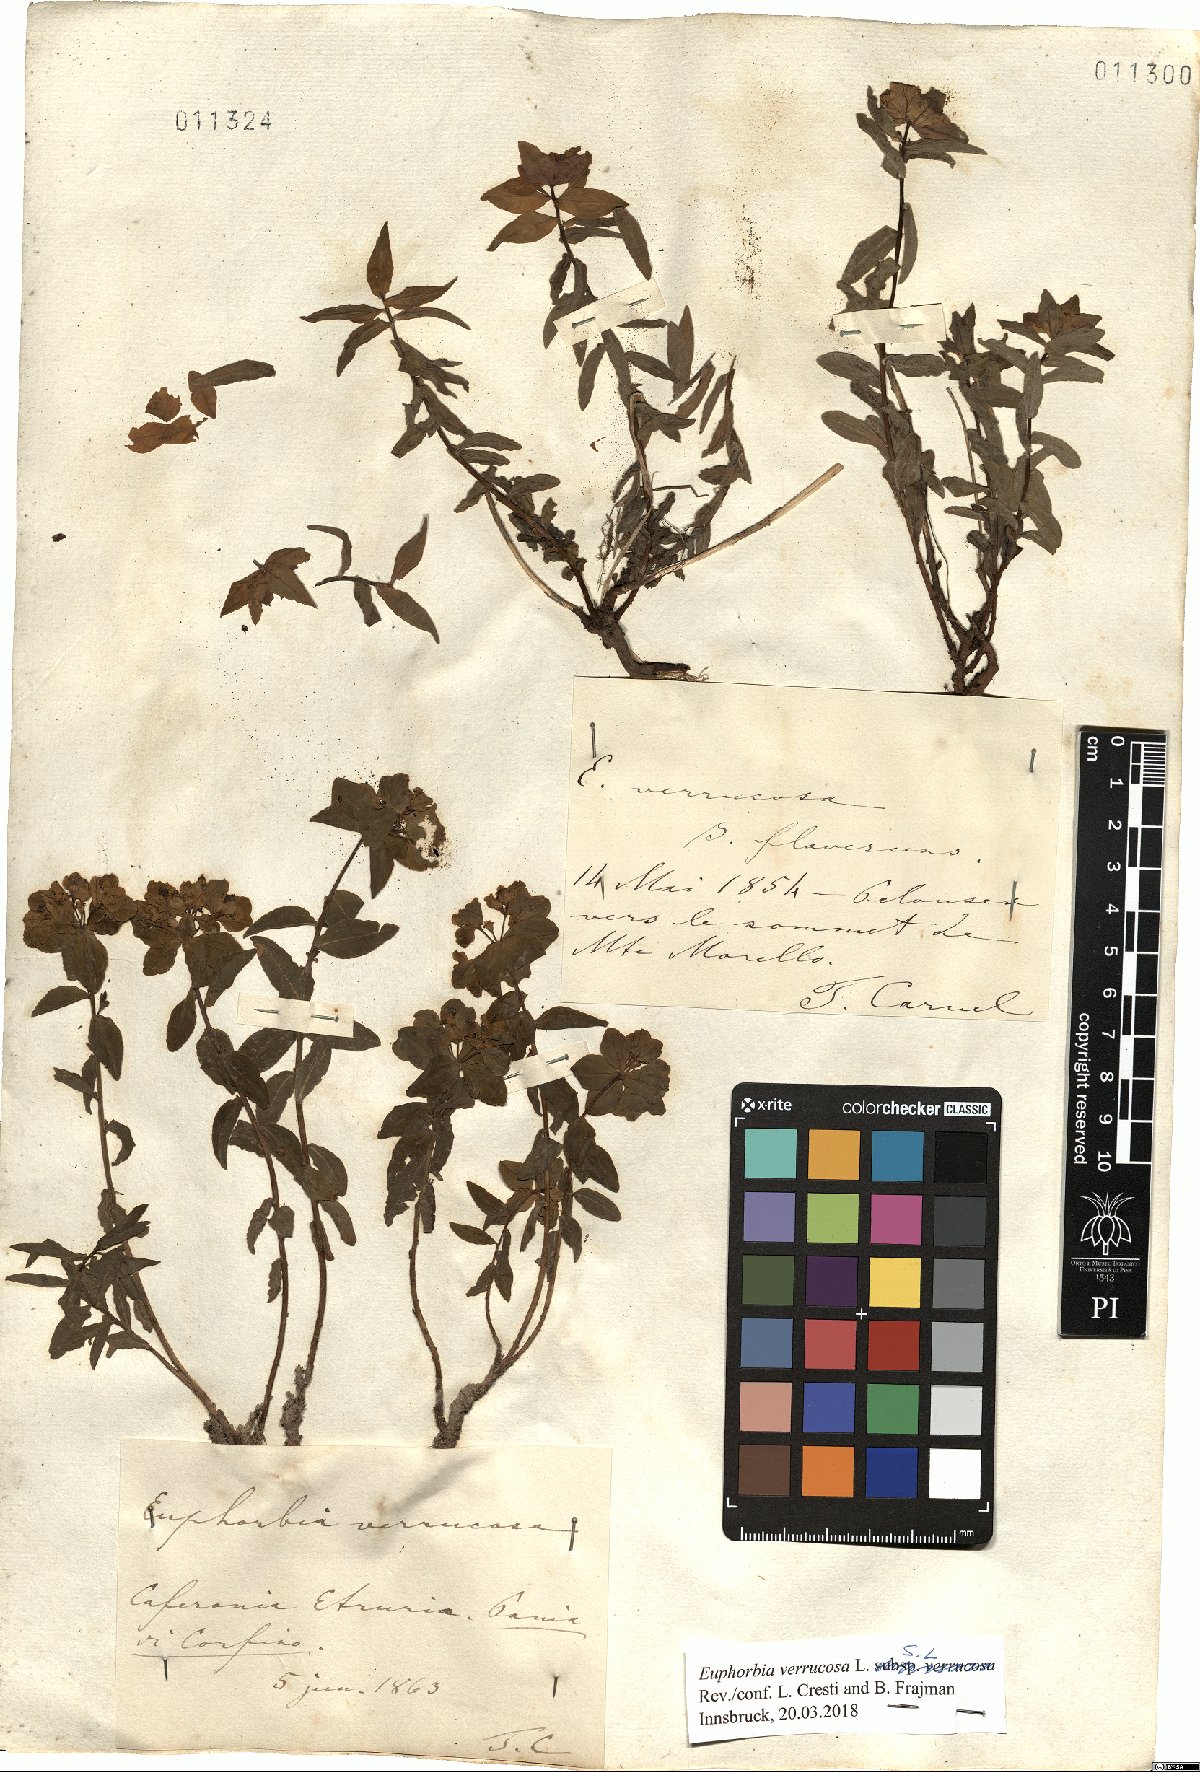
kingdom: Plantae
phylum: Tracheophyta
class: Magnoliopsida
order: Malpighiales
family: Euphorbiaceae
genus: Euphorbia
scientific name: Euphorbia verrucosa
